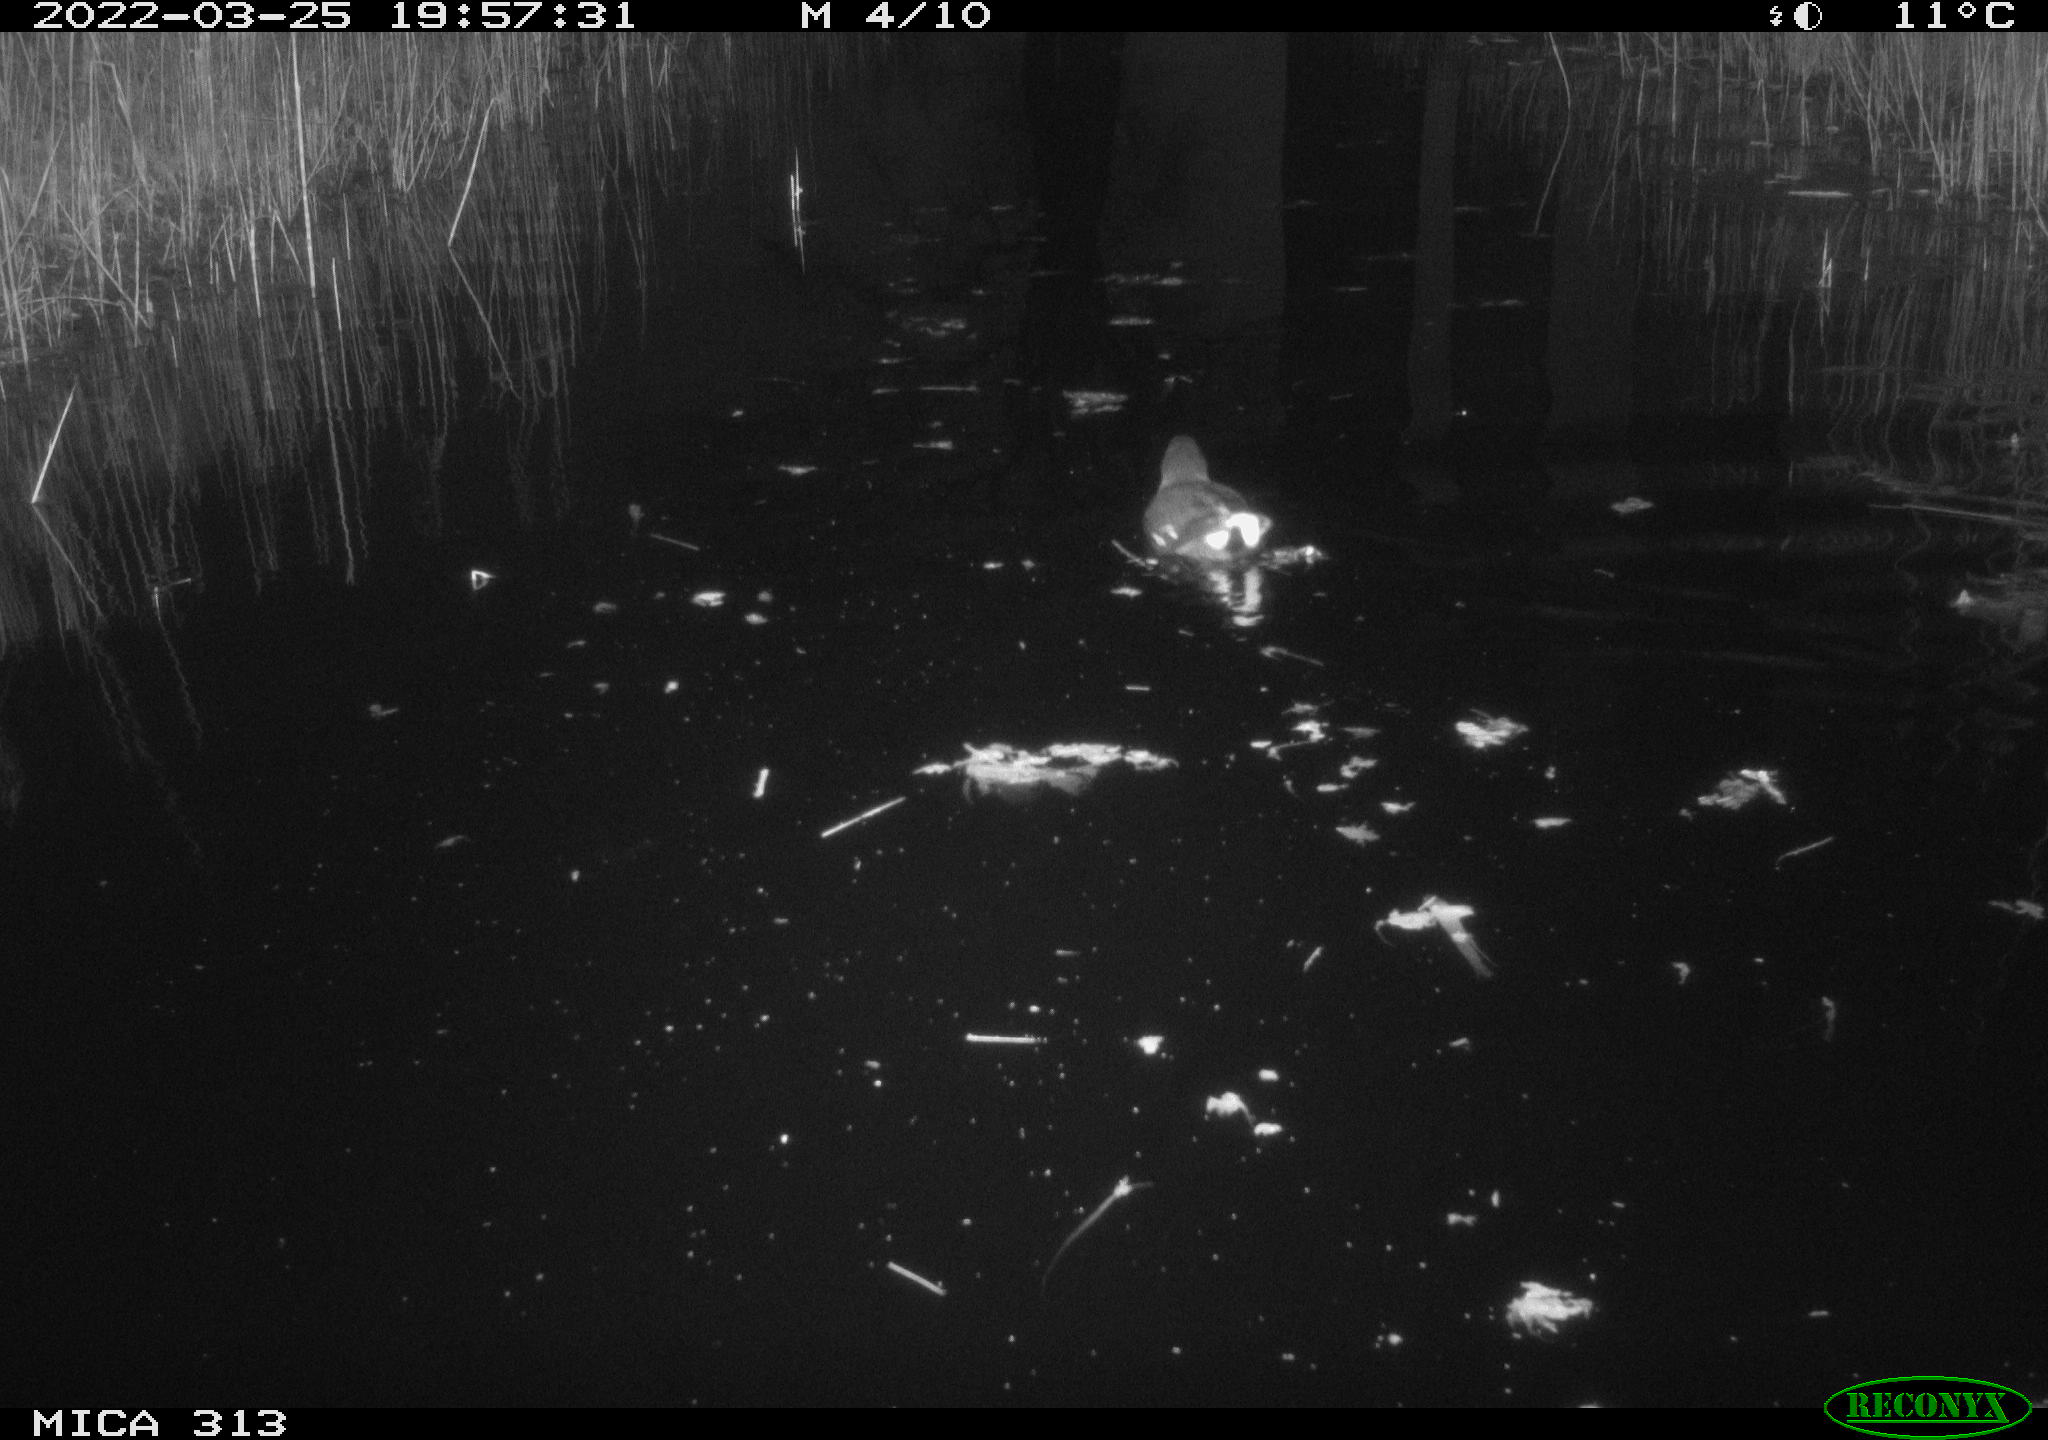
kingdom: Animalia
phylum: Chordata
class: Aves
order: Gruiformes
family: Rallidae
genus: Gallinula
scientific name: Gallinula chloropus
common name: Common moorhen
